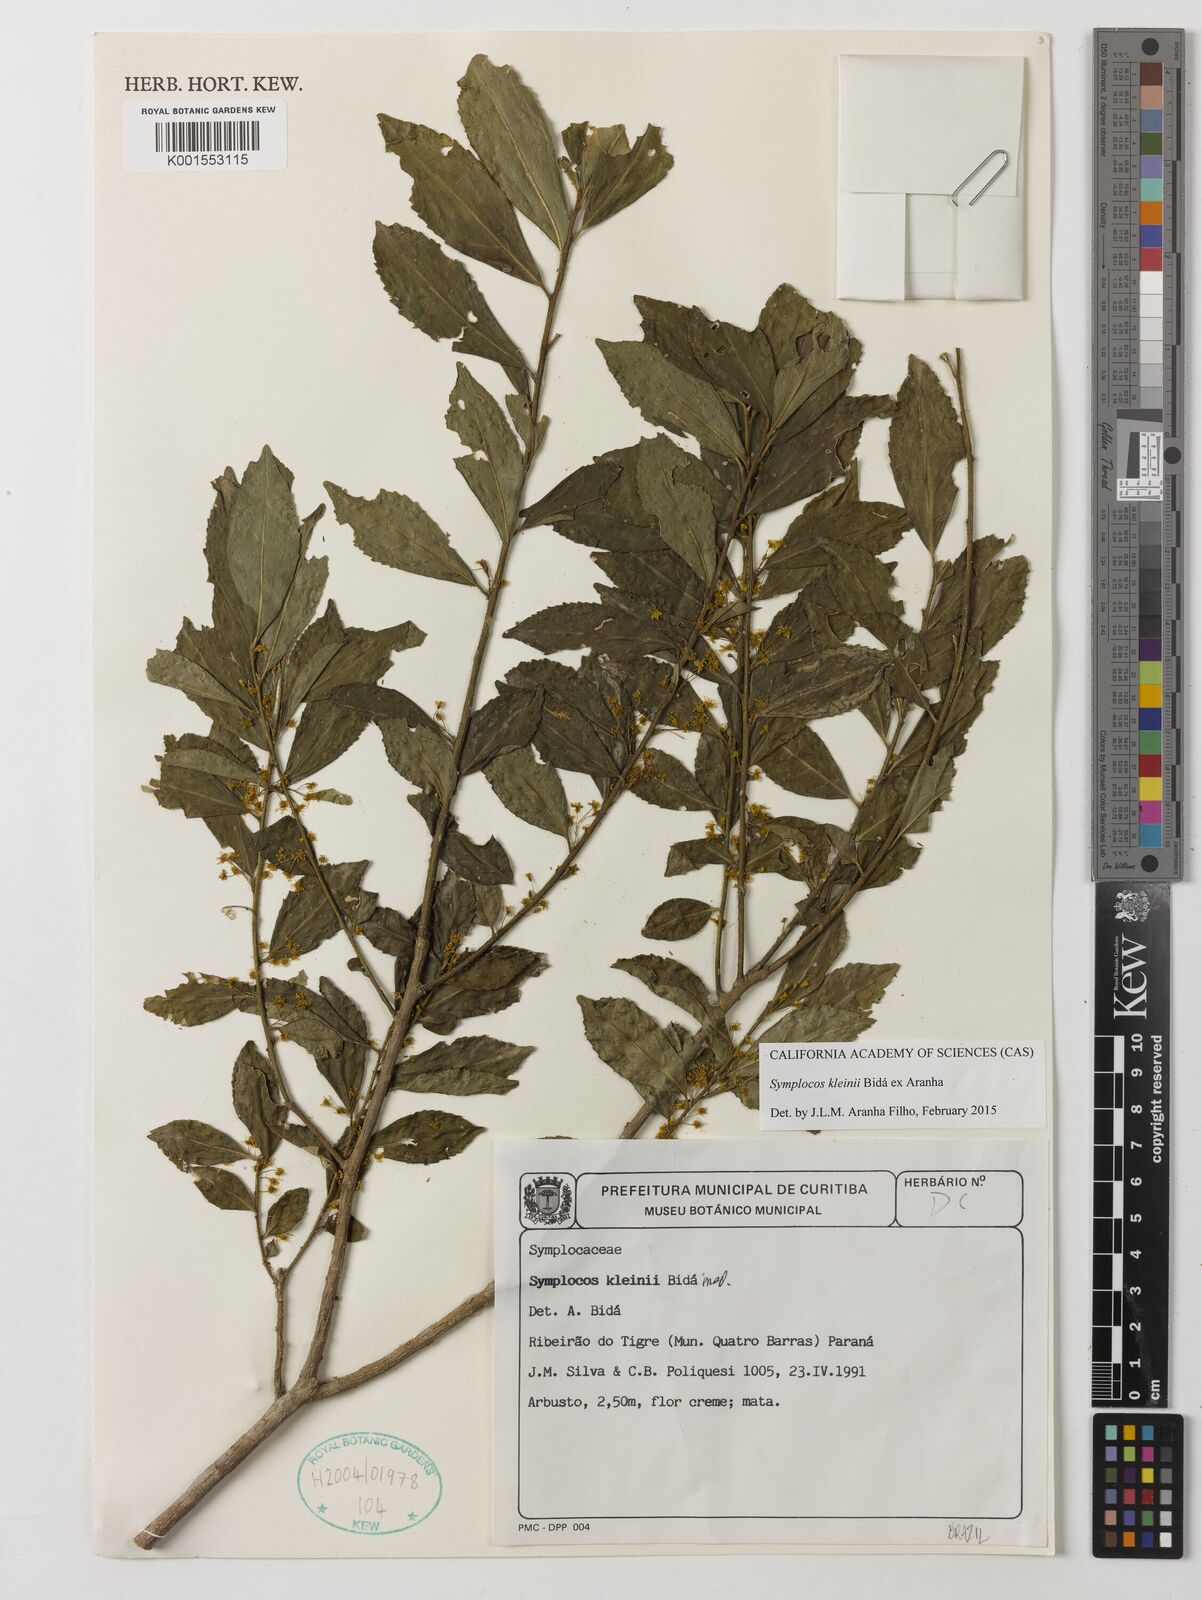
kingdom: Plantae
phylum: Tracheophyta
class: Magnoliopsida
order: Ericales
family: Symplocaceae
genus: Symplocos
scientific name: Symplocos kleinii
